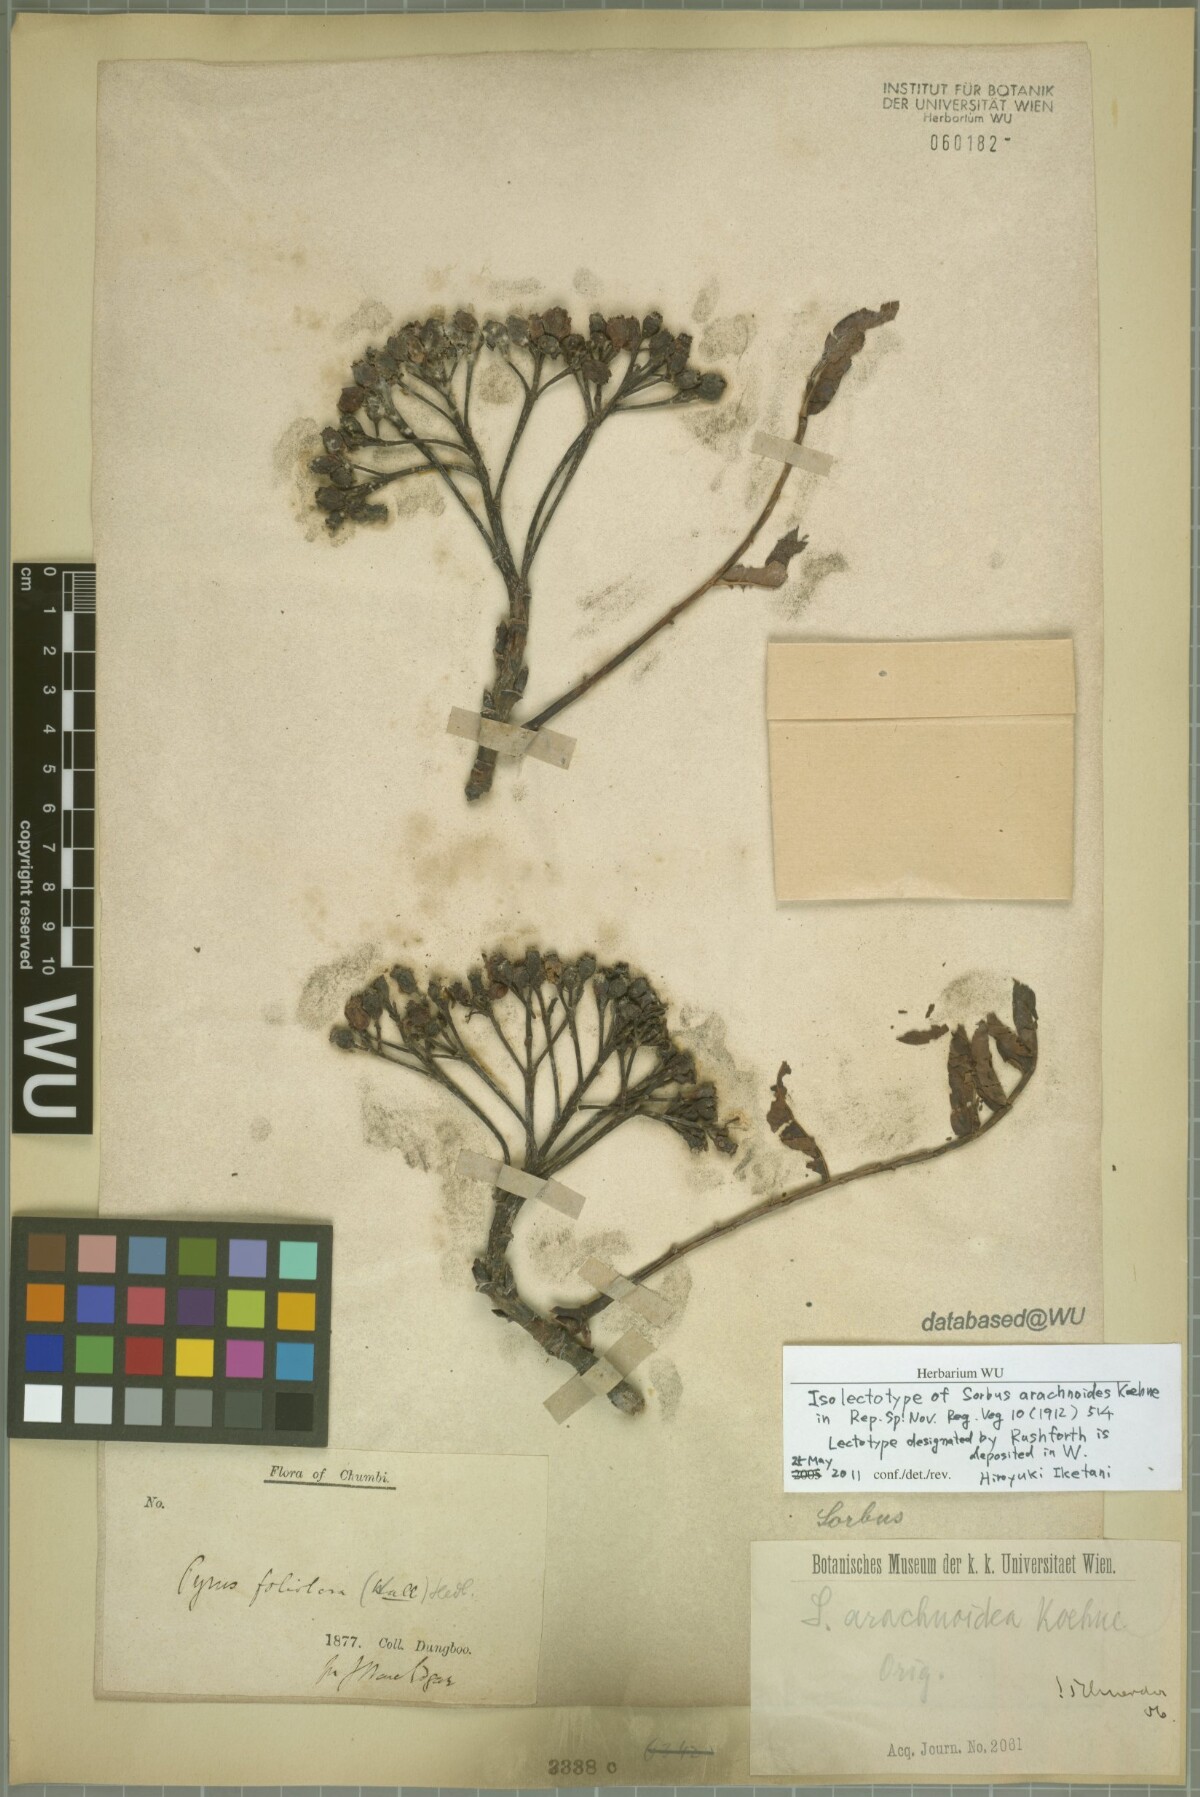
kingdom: Plantae
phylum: Tracheophyta
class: Magnoliopsida
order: Rosales
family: Rosaceae
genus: Sorbus
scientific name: Sorbus arachnoidea
